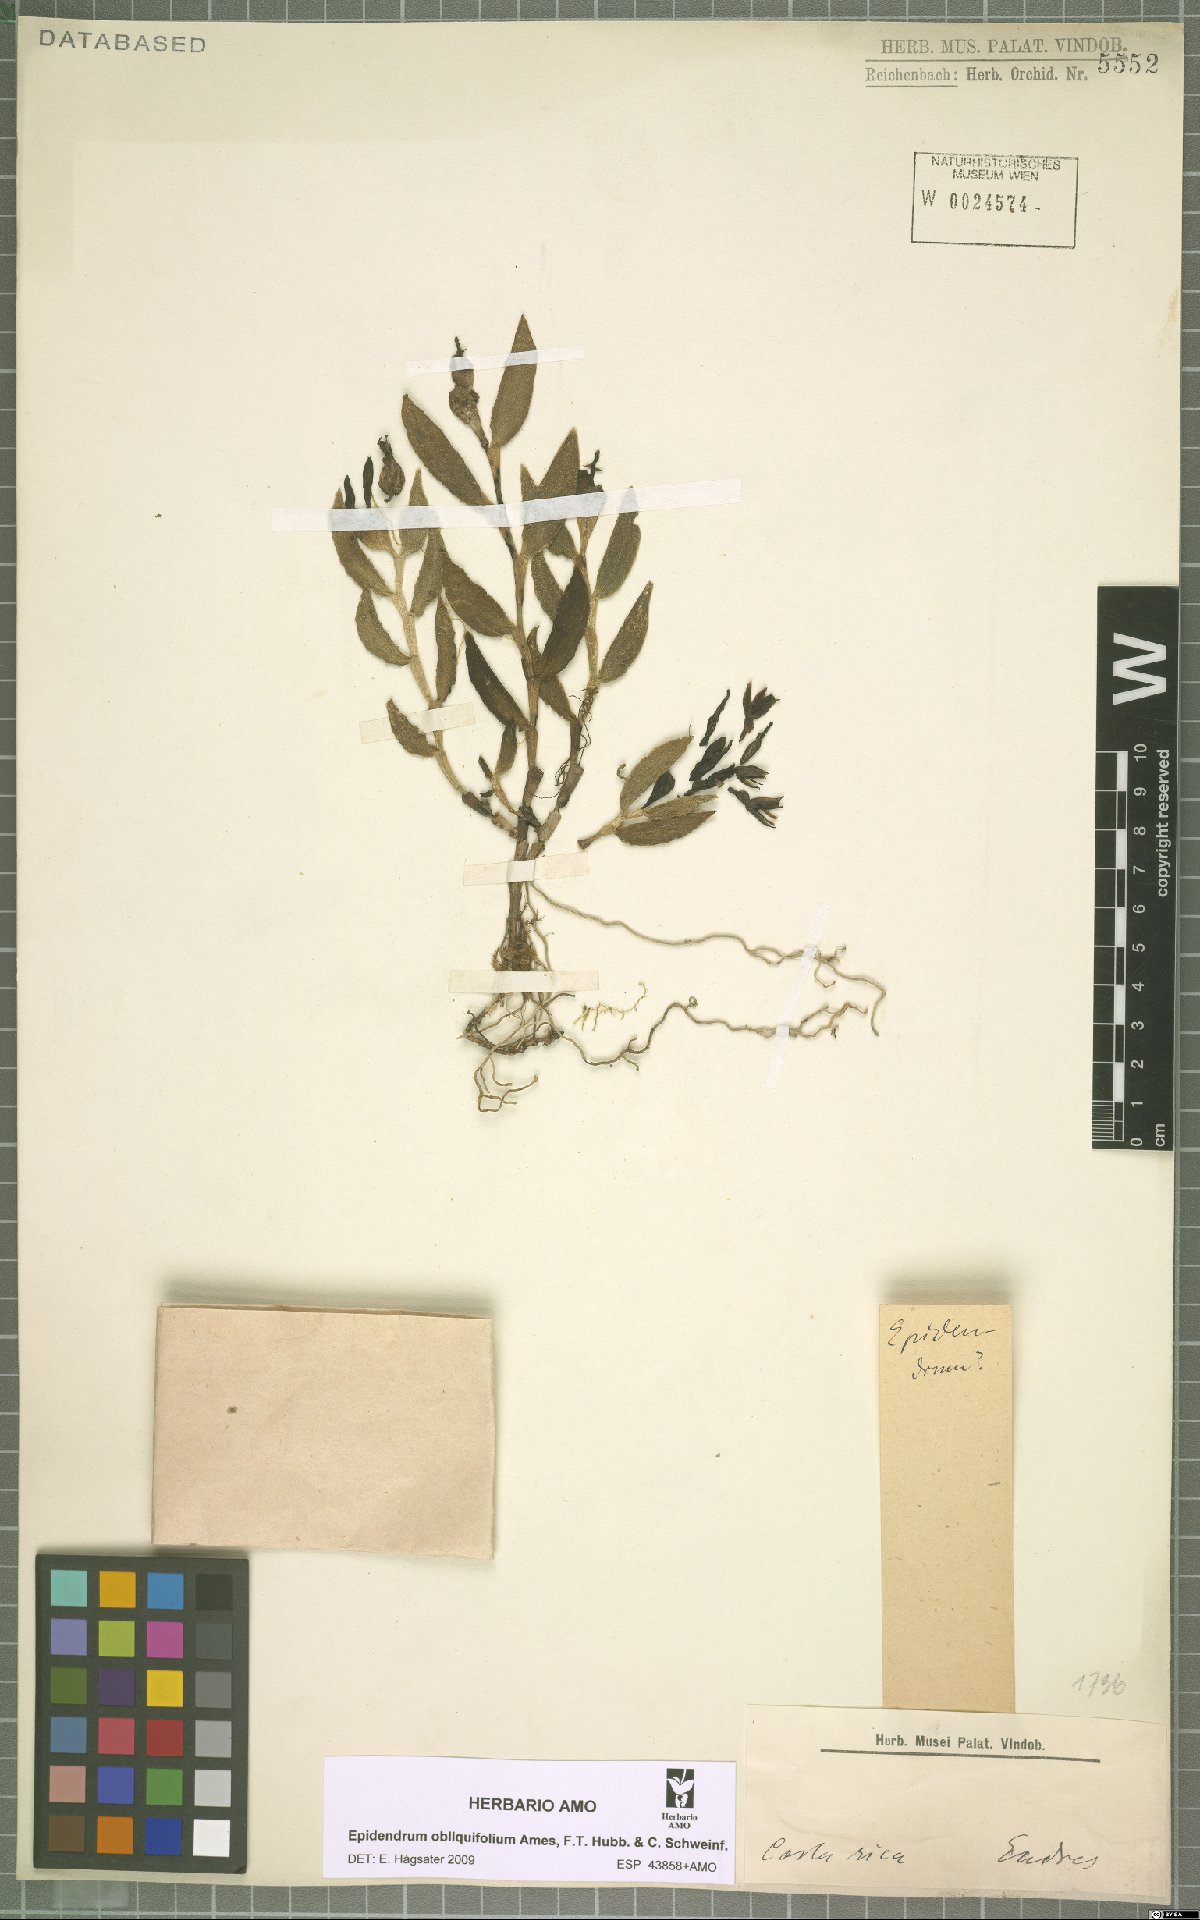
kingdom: Plantae
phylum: Tracheophyta
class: Liliopsida
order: Asparagales
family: Orchidaceae
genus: Epidendrum
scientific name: Epidendrum obliquifolium
